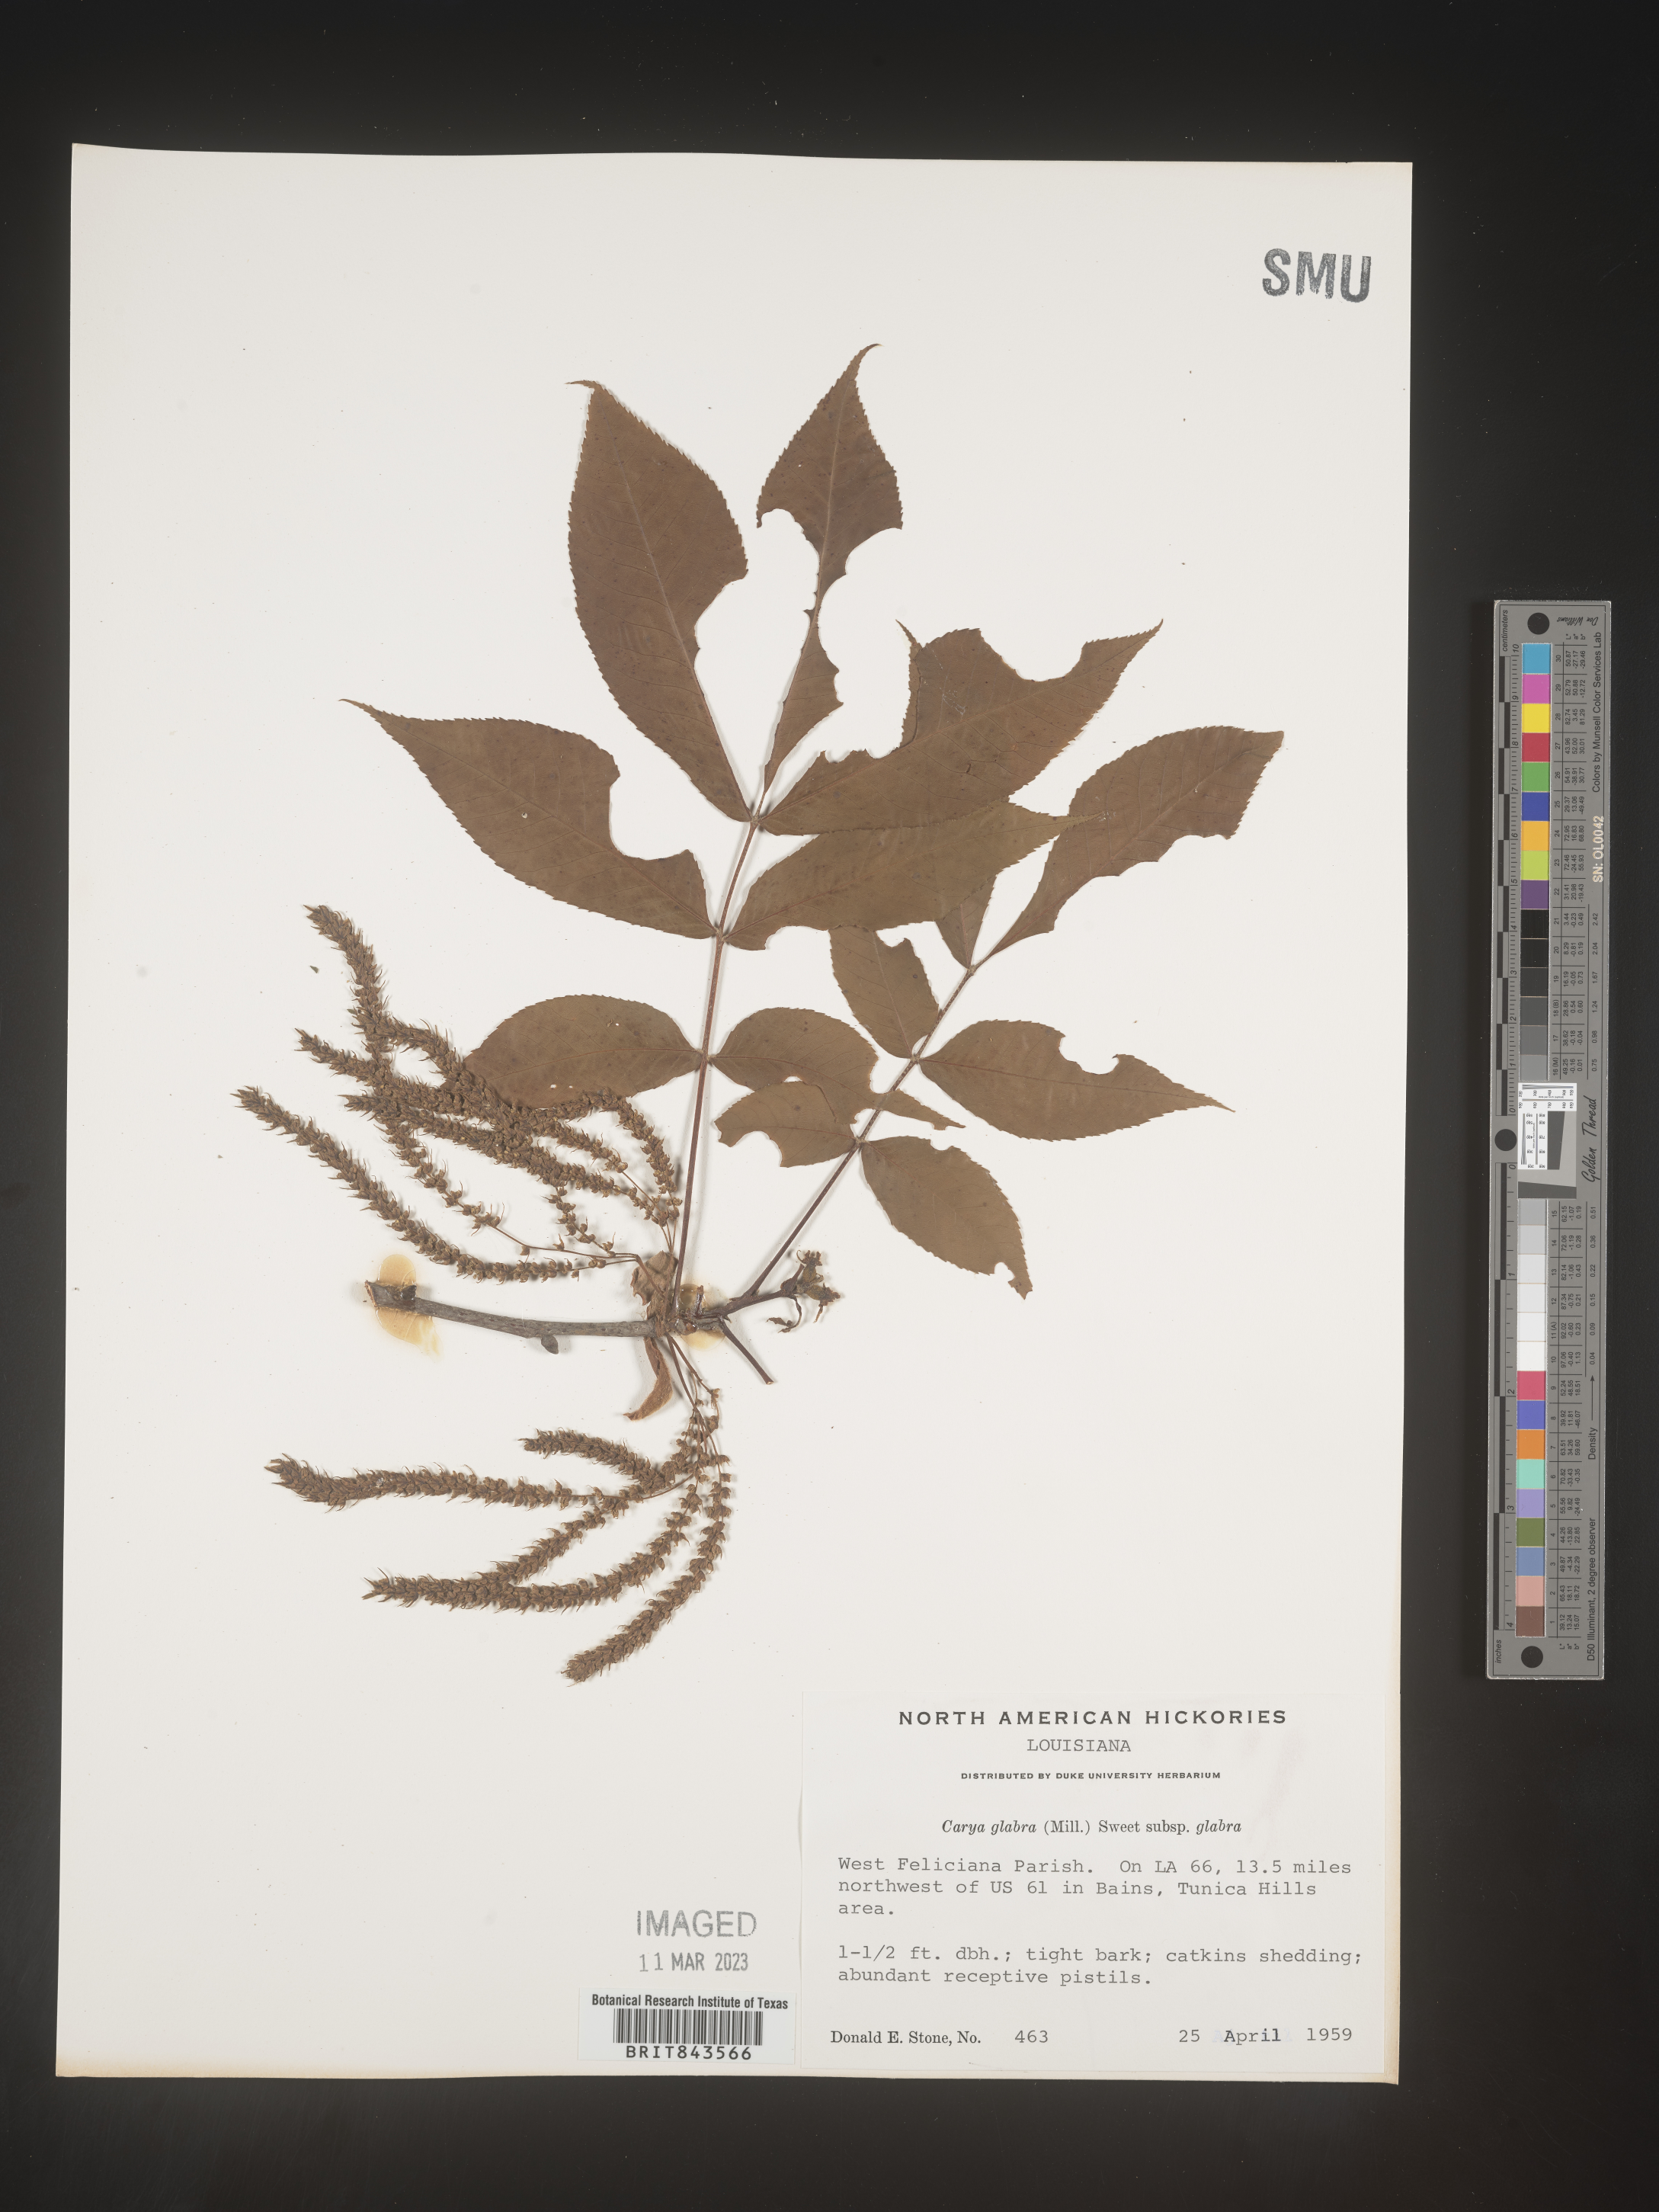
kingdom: Plantae
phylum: Tracheophyta
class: Magnoliopsida
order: Fagales
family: Juglandaceae
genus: Carya
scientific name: Carya glabra
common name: Pignut hickory
